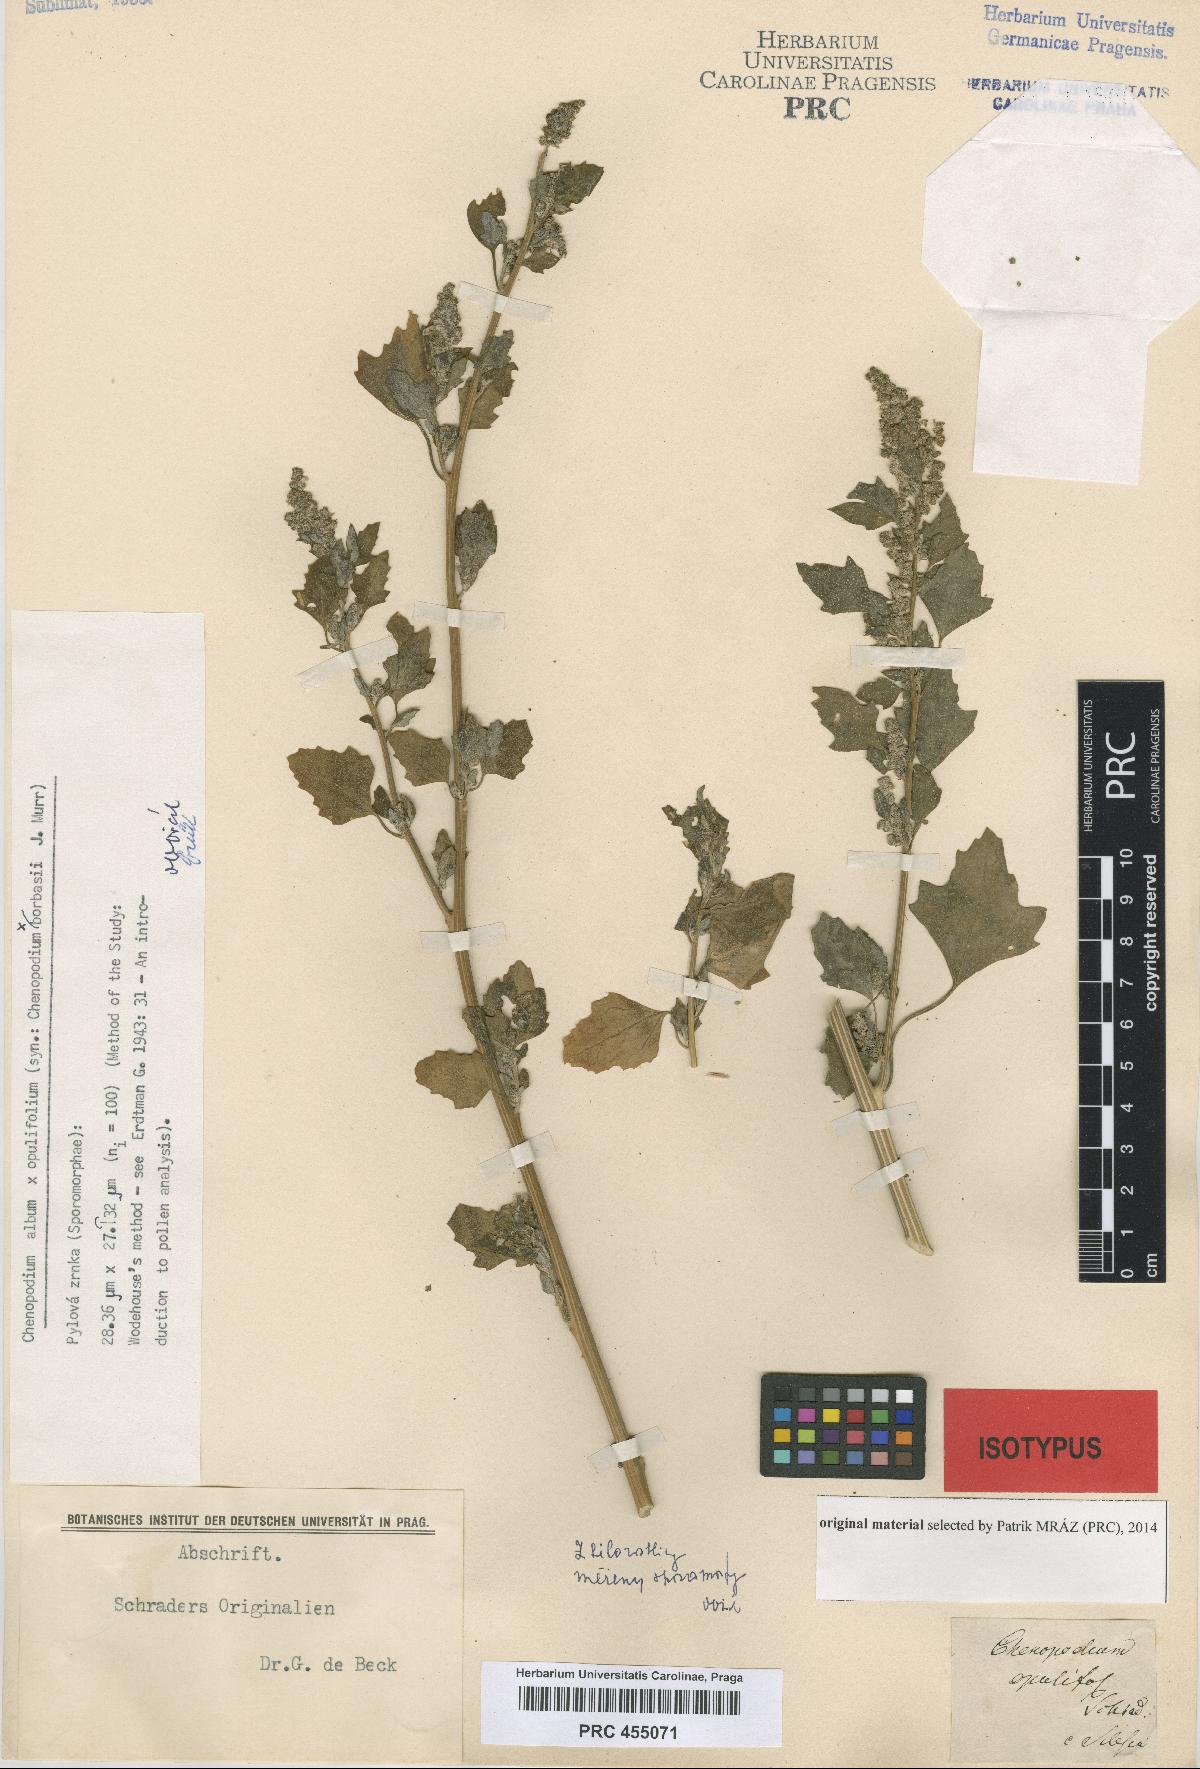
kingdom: Plantae
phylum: Tracheophyta
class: Magnoliopsida
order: Caryophyllales
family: Amaranthaceae
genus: Chenopodium
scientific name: Chenopodium opulifolium
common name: Grey goosefoot
